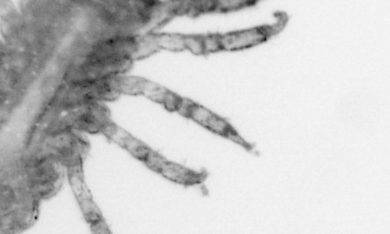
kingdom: Animalia
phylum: Arthropoda
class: Arachnida
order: Trombidiformes
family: Halacaridae
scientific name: Halacaridae
